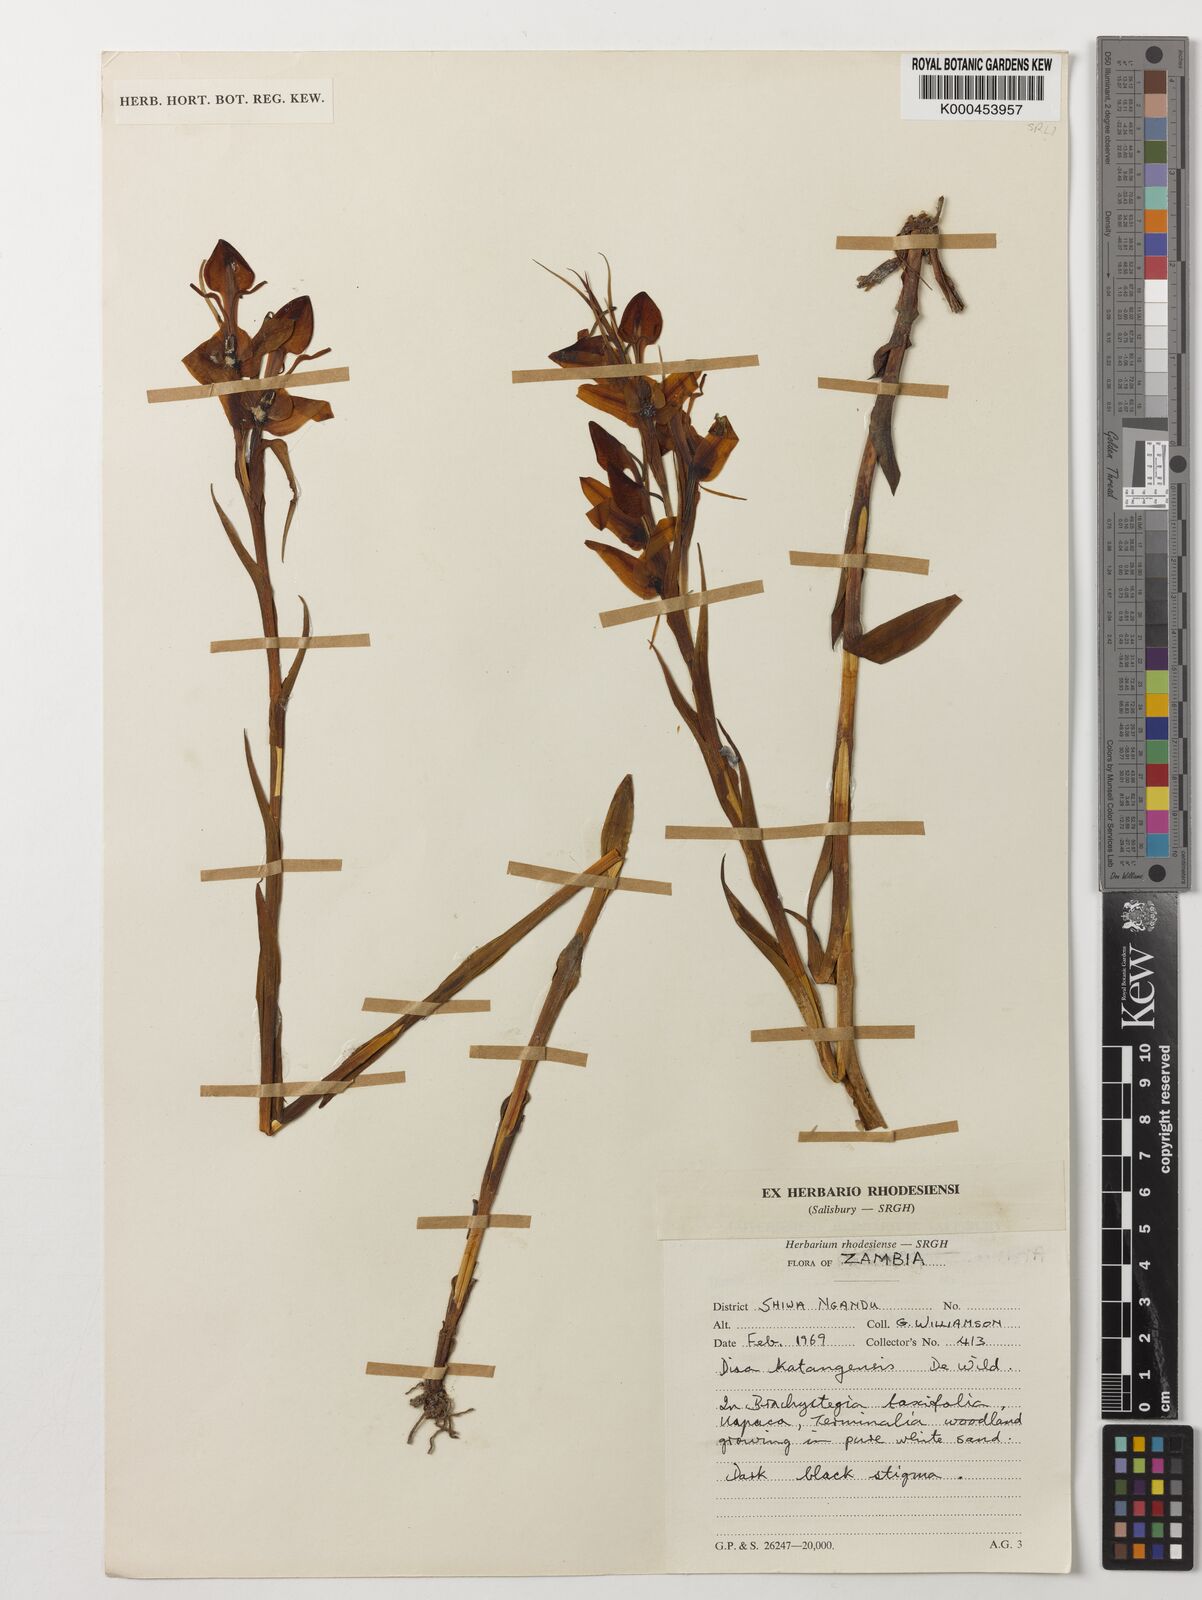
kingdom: Plantae
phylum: Tracheophyta
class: Liliopsida
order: Asparagales
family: Orchidaceae
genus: Disa
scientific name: Disa katangensis
